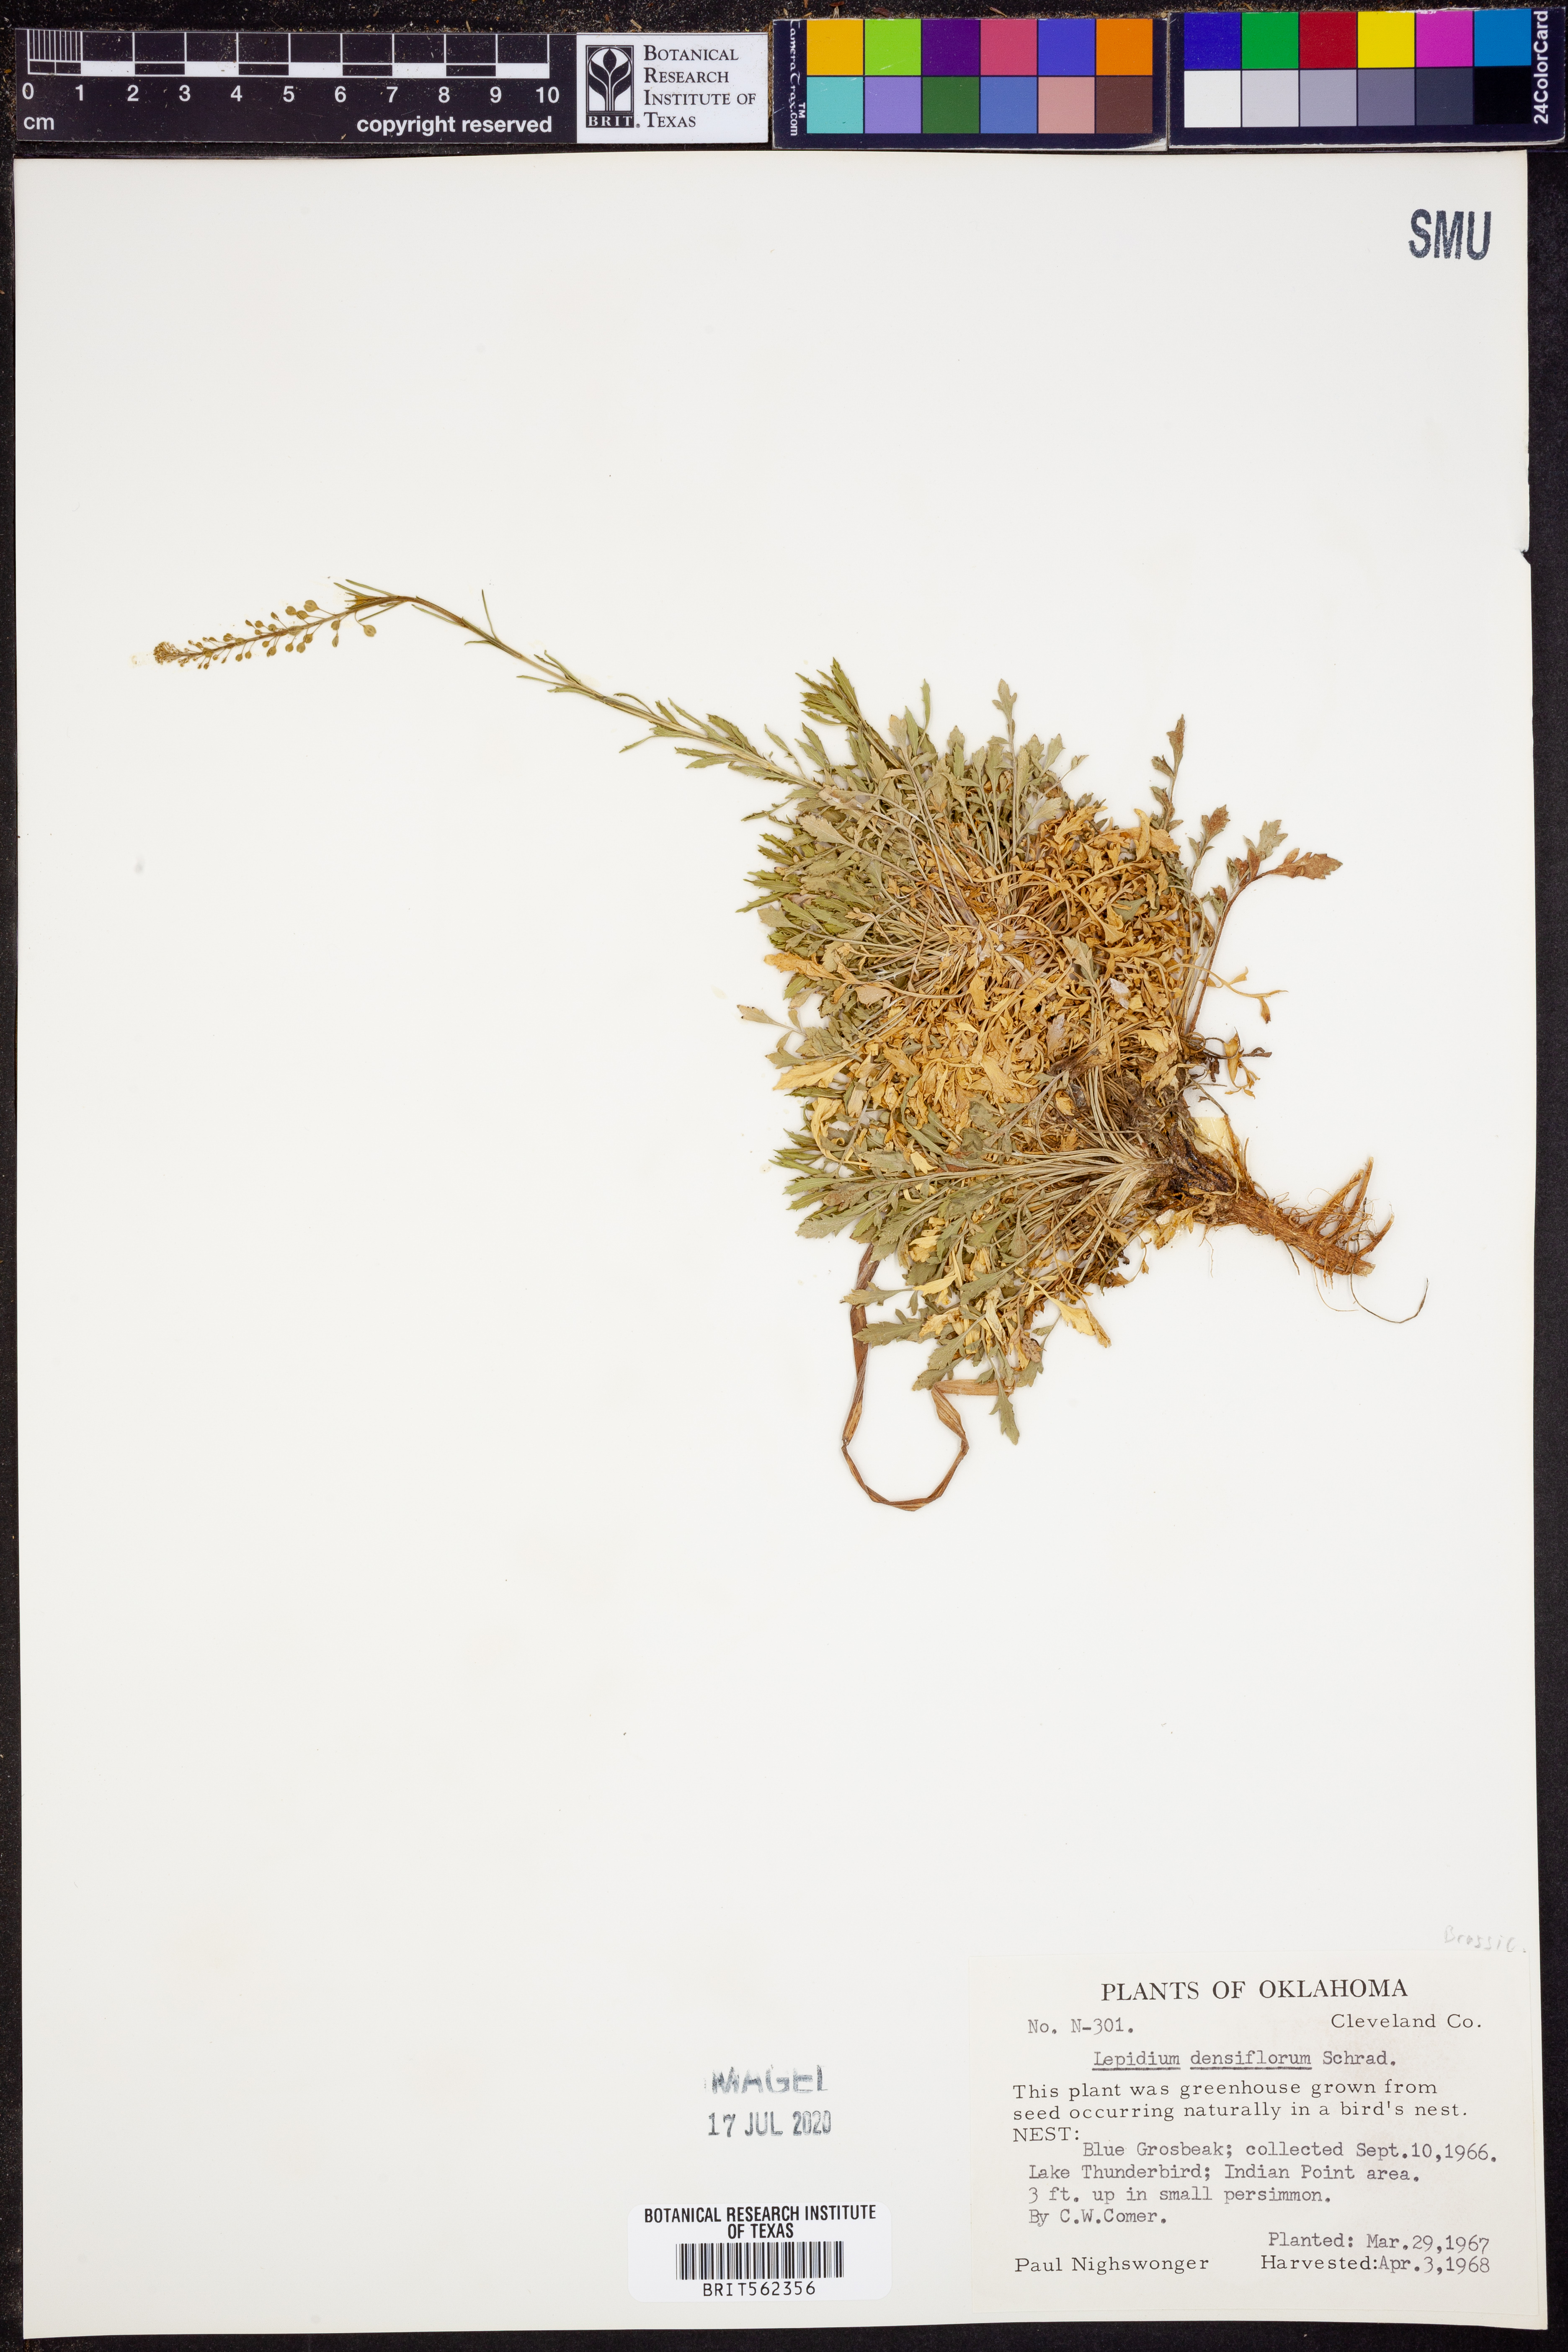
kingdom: Plantae
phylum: Tracheophyta
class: Magnoliopsida
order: Brassicales
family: Brassicaceae
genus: Lepidium
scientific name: Lepidium densiflorum
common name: Miner's pepperwort
